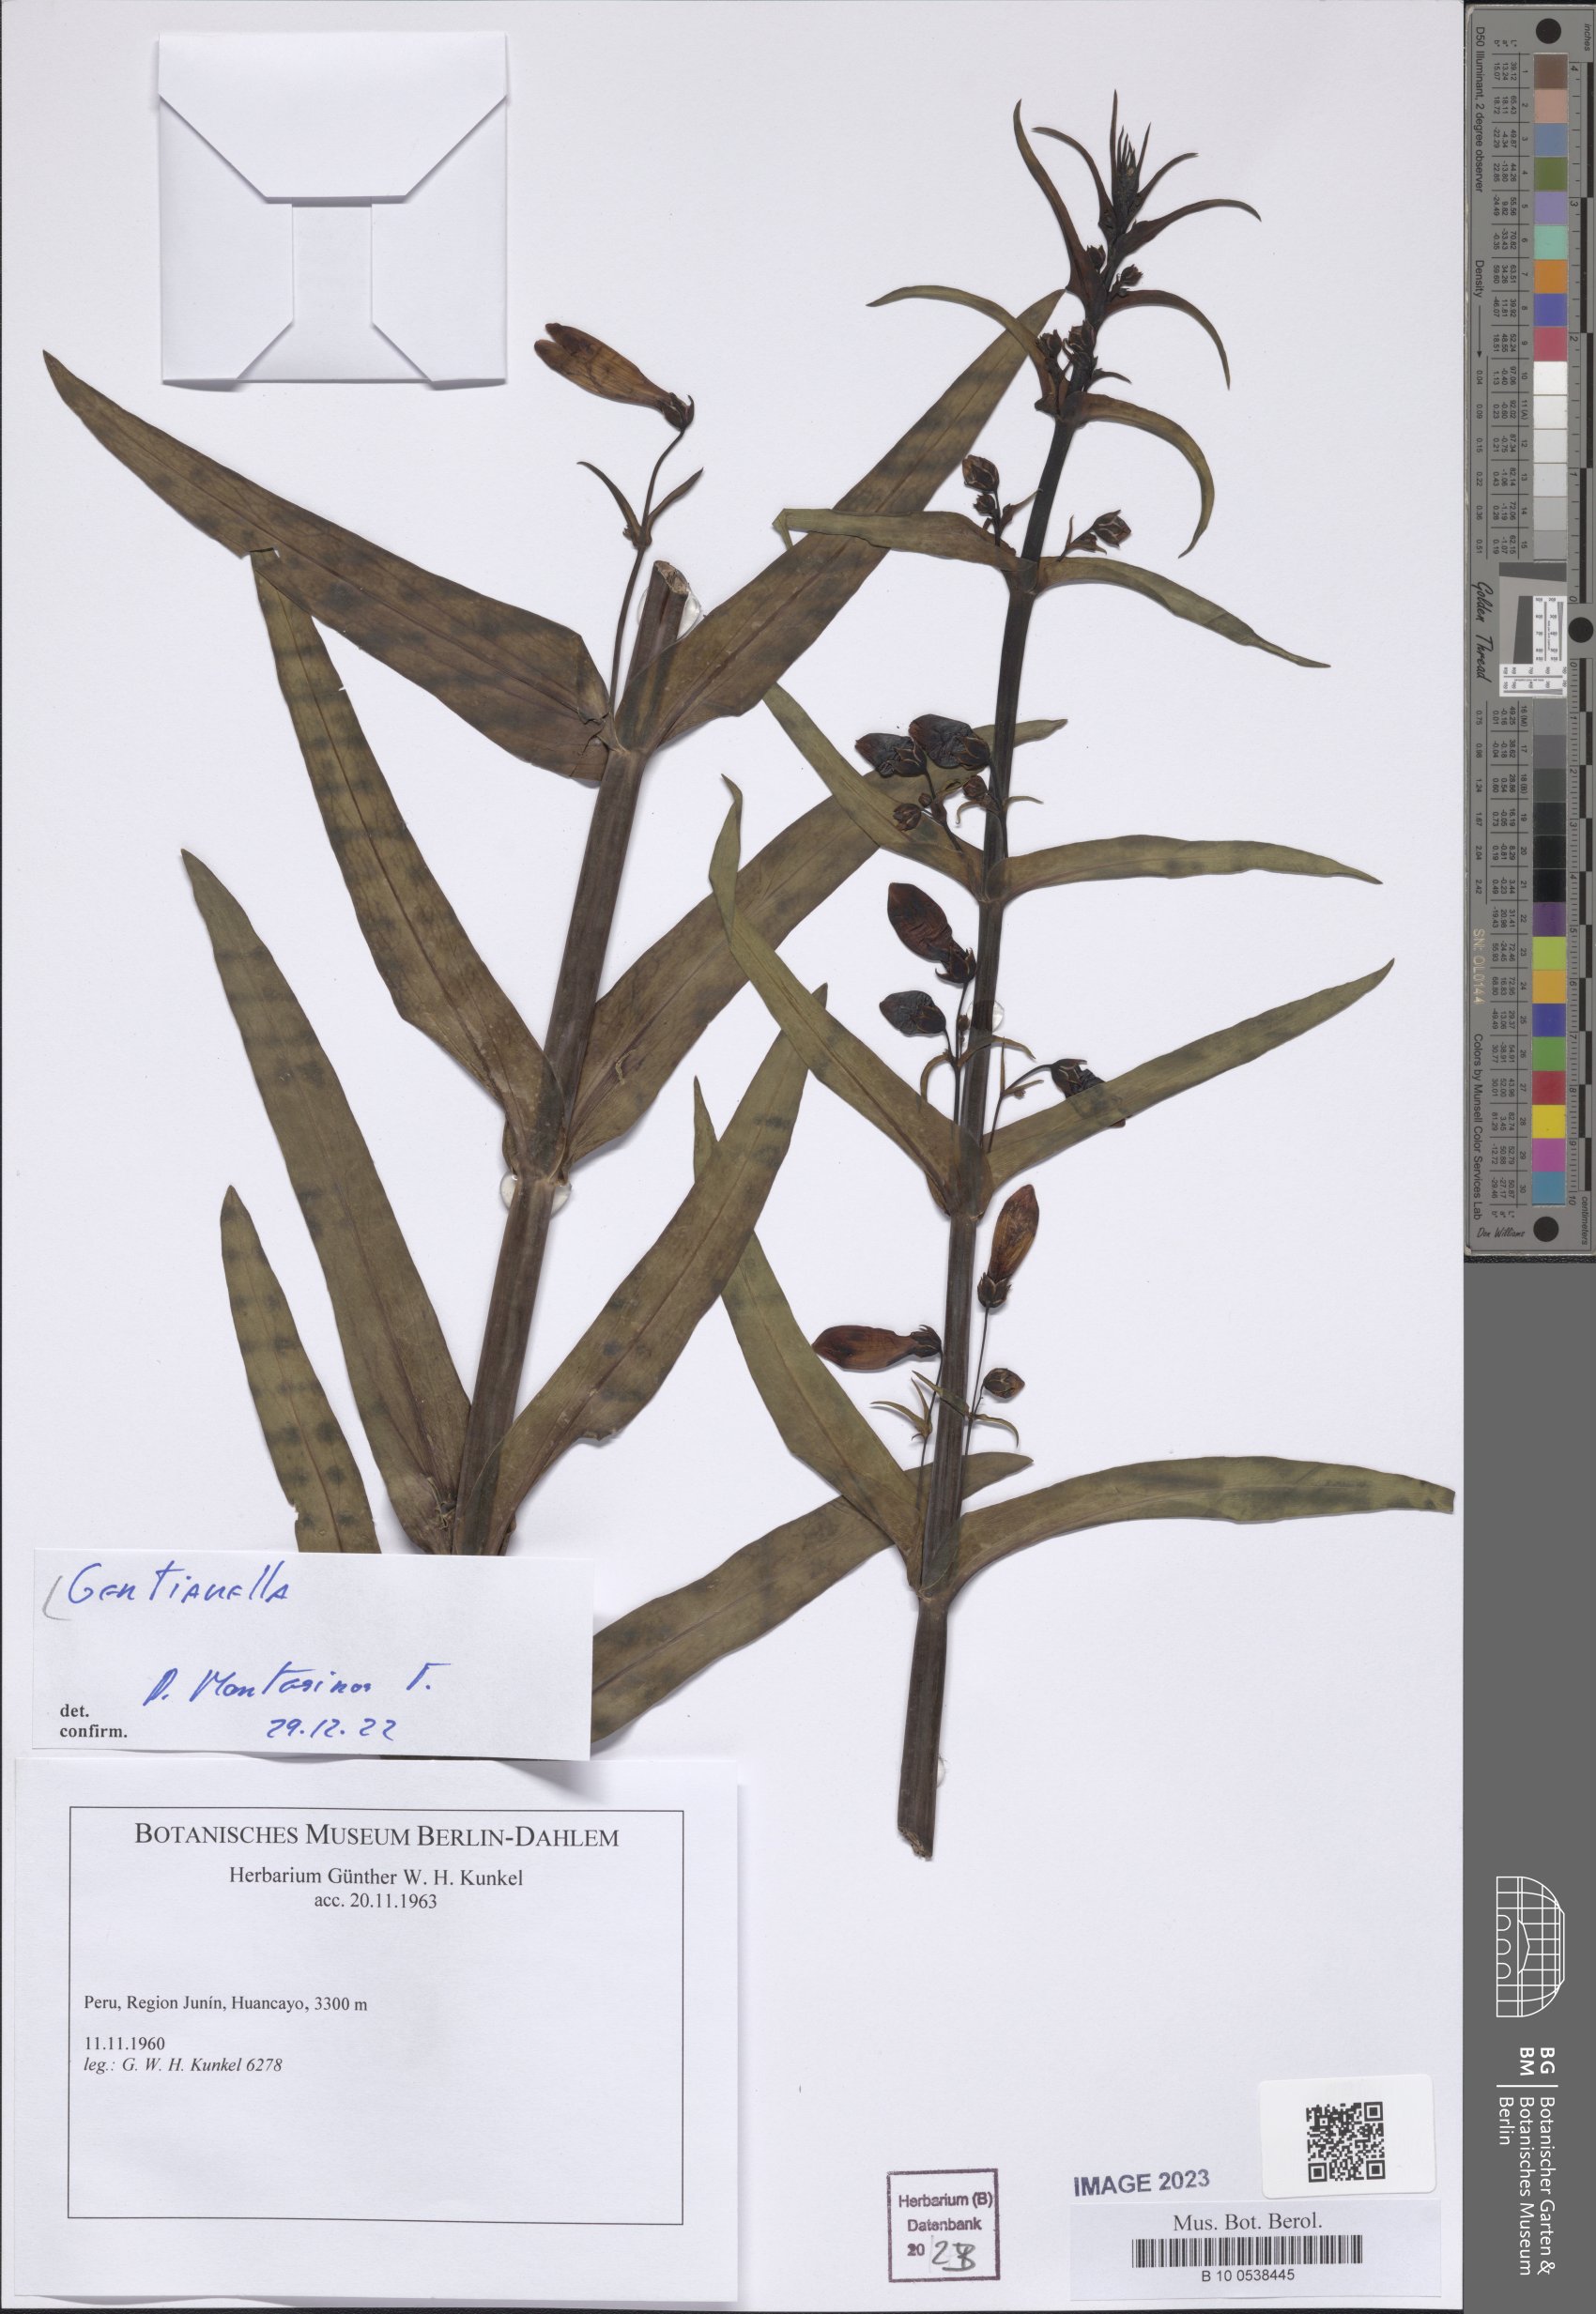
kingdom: Plantae
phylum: Tracheophyta
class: Magnoliopsida
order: Gentianales
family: Gentianaceae
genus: Gentianella
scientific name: Gentianella
